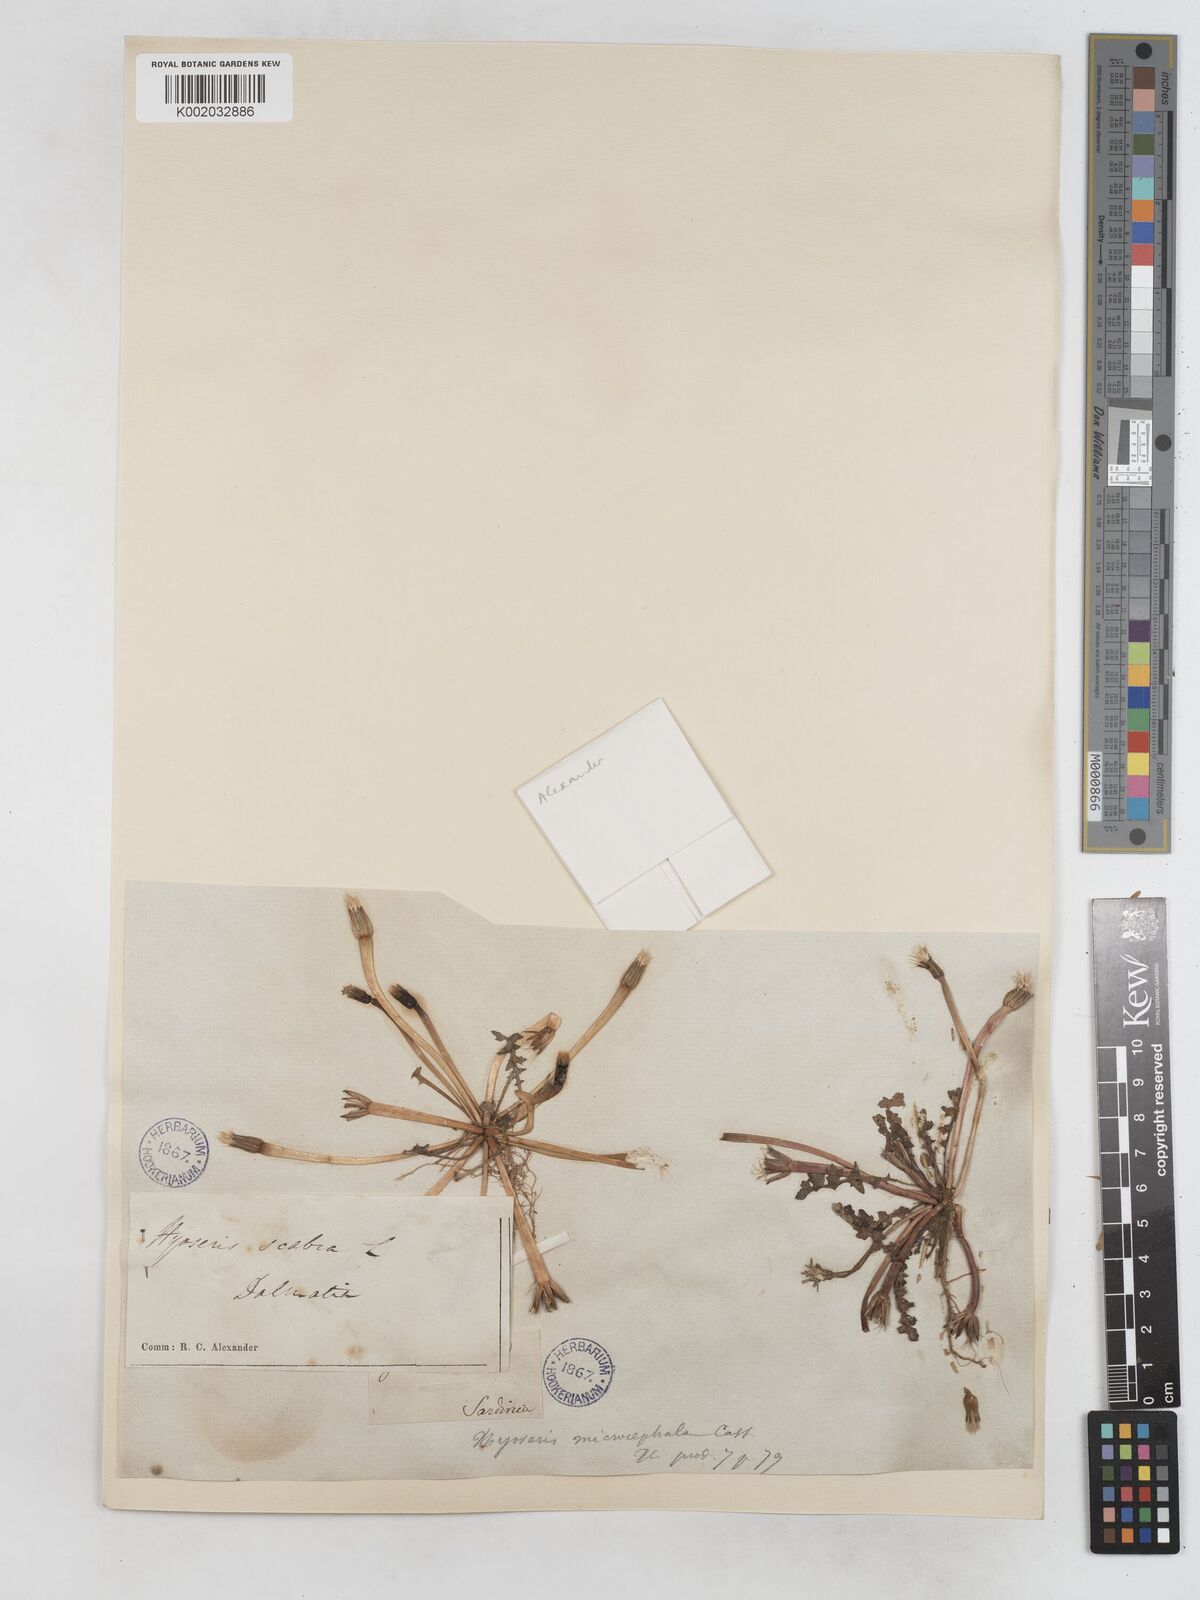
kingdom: Plantae
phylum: Tracheophyta
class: Magnoliopsida
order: Asterales
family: Asteraceae
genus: Hyoseris
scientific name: Hyoseris scabra
